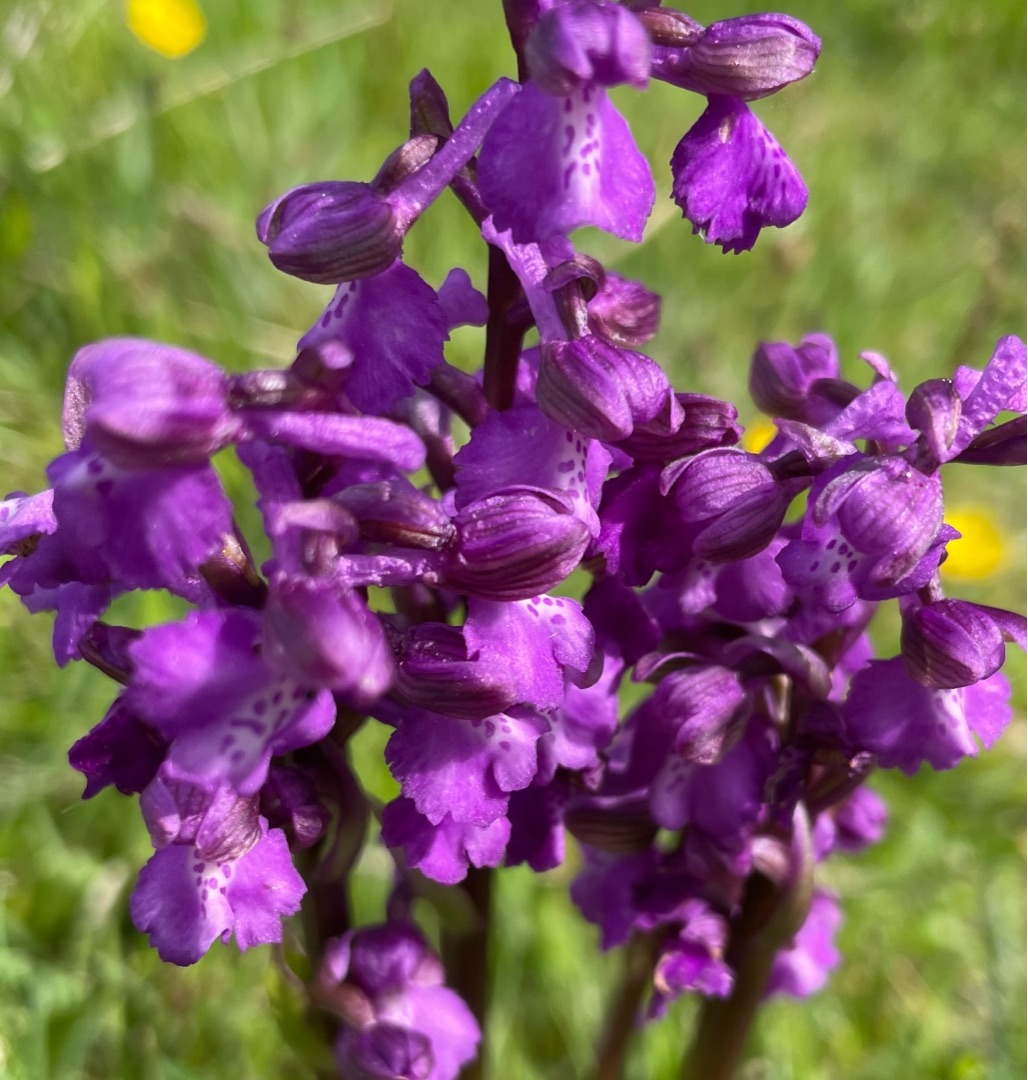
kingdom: Plantae
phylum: Tracheophyta
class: Liliopsida
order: Asparagales
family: Orchidaceae
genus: Anacamptis
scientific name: Anacamptis morio
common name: Salepgøgeurt
